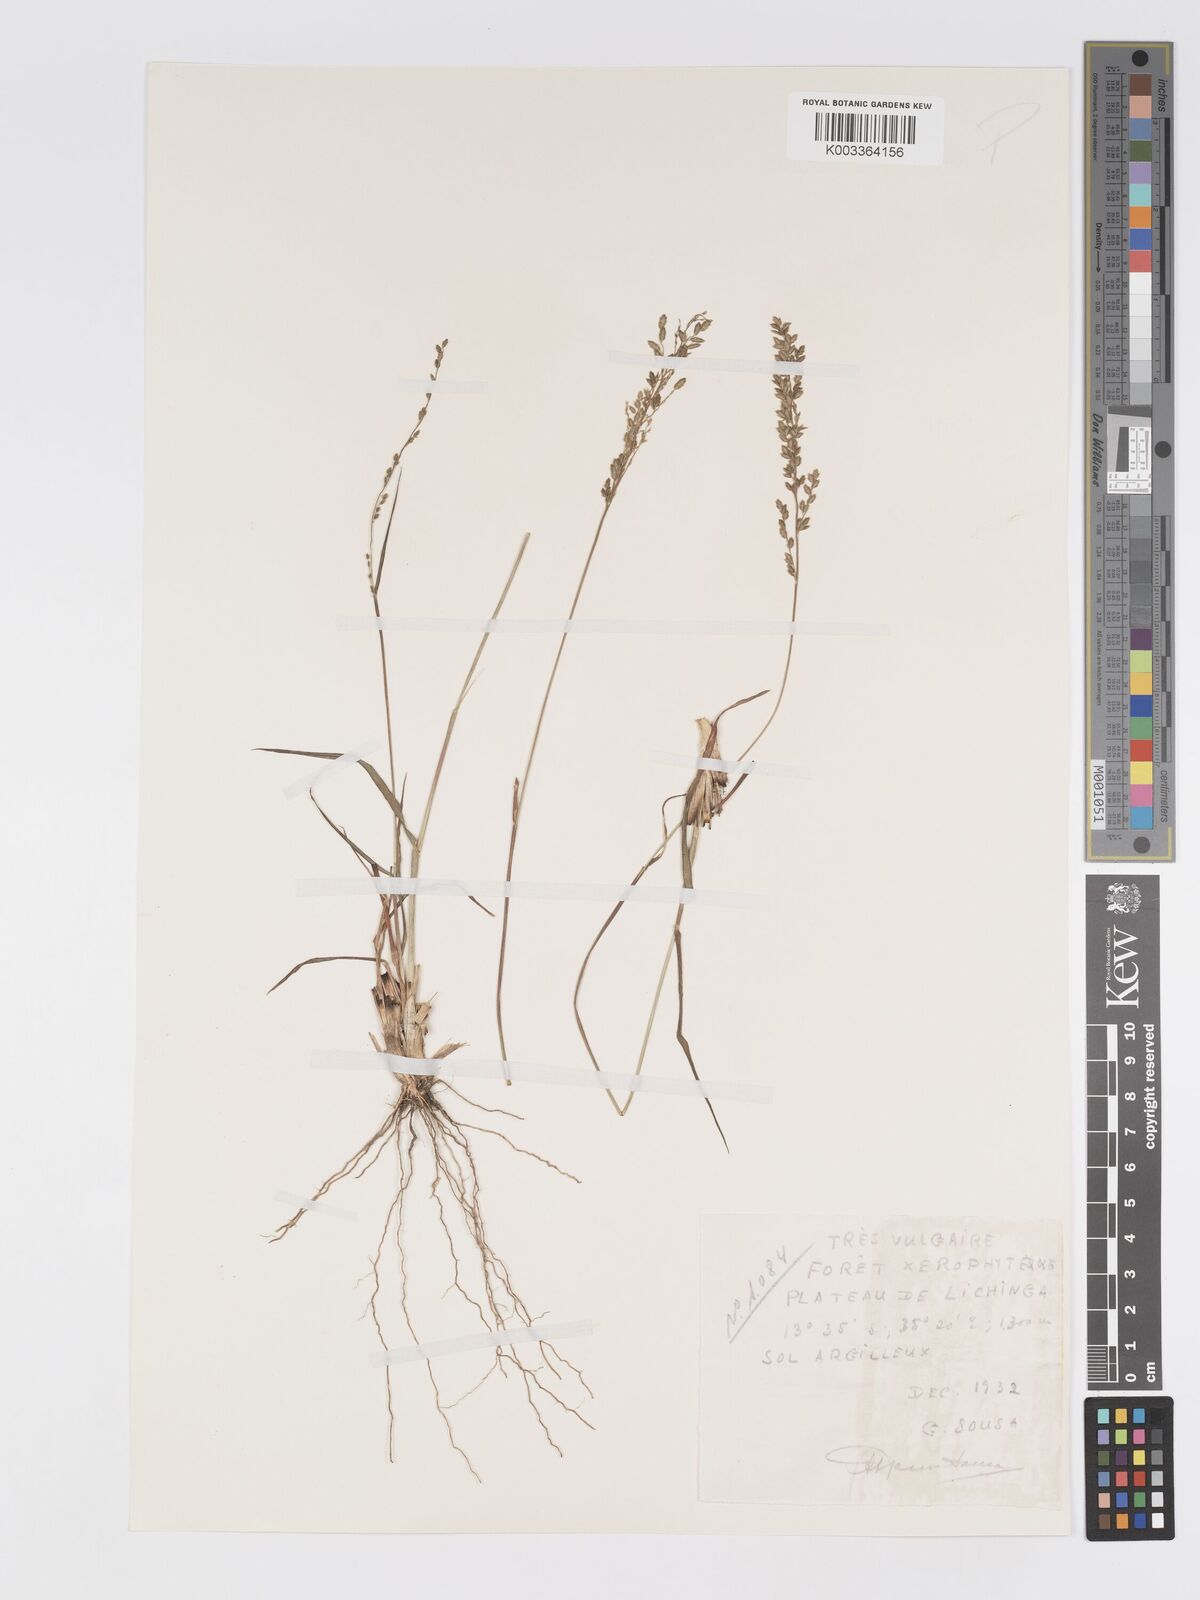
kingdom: Plantae
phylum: Tracheophyta
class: Liliopsida
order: Poales
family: Poaceae
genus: Eragrostis
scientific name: Eragrostis racemosa
